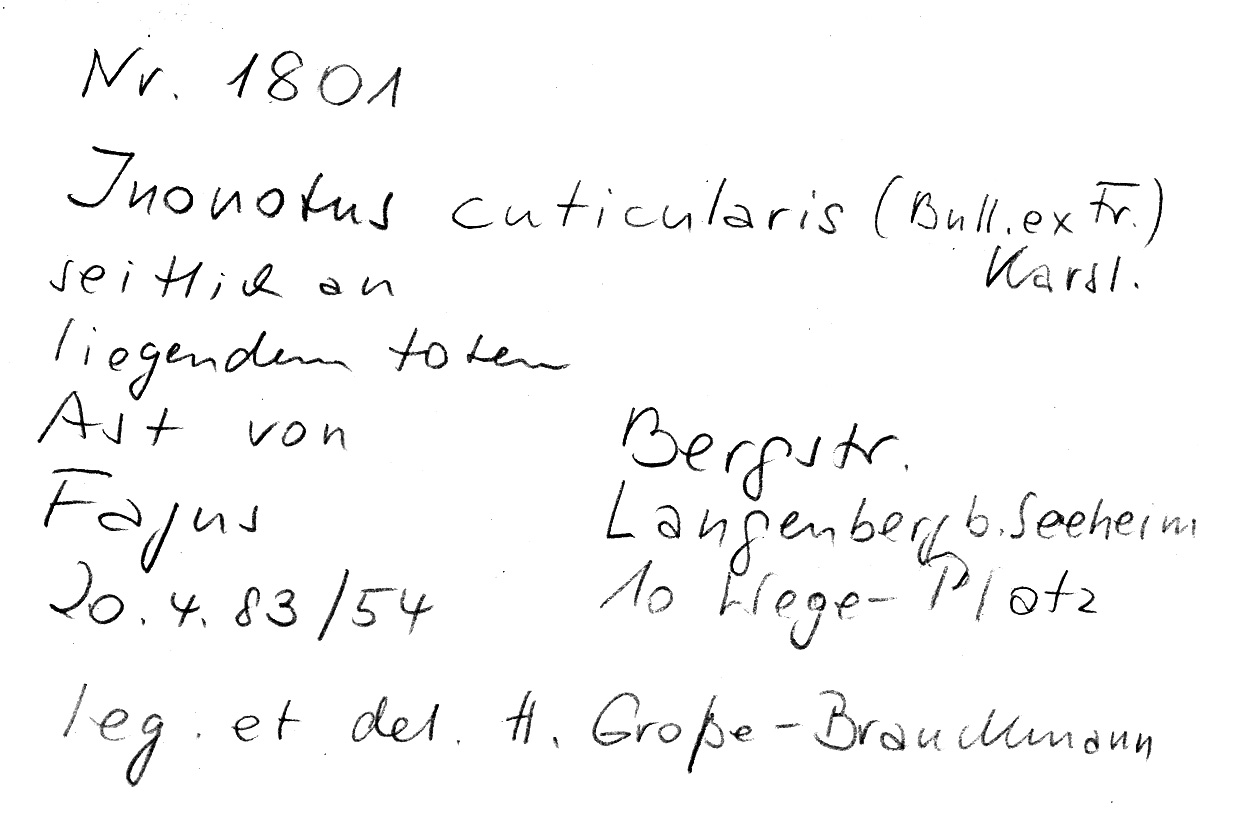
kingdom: Plantae
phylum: Tracheophyta
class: Magnoliopsida
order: Fagales
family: Fagaceae
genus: Fagus
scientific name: Fagus sylvatica
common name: Beech
